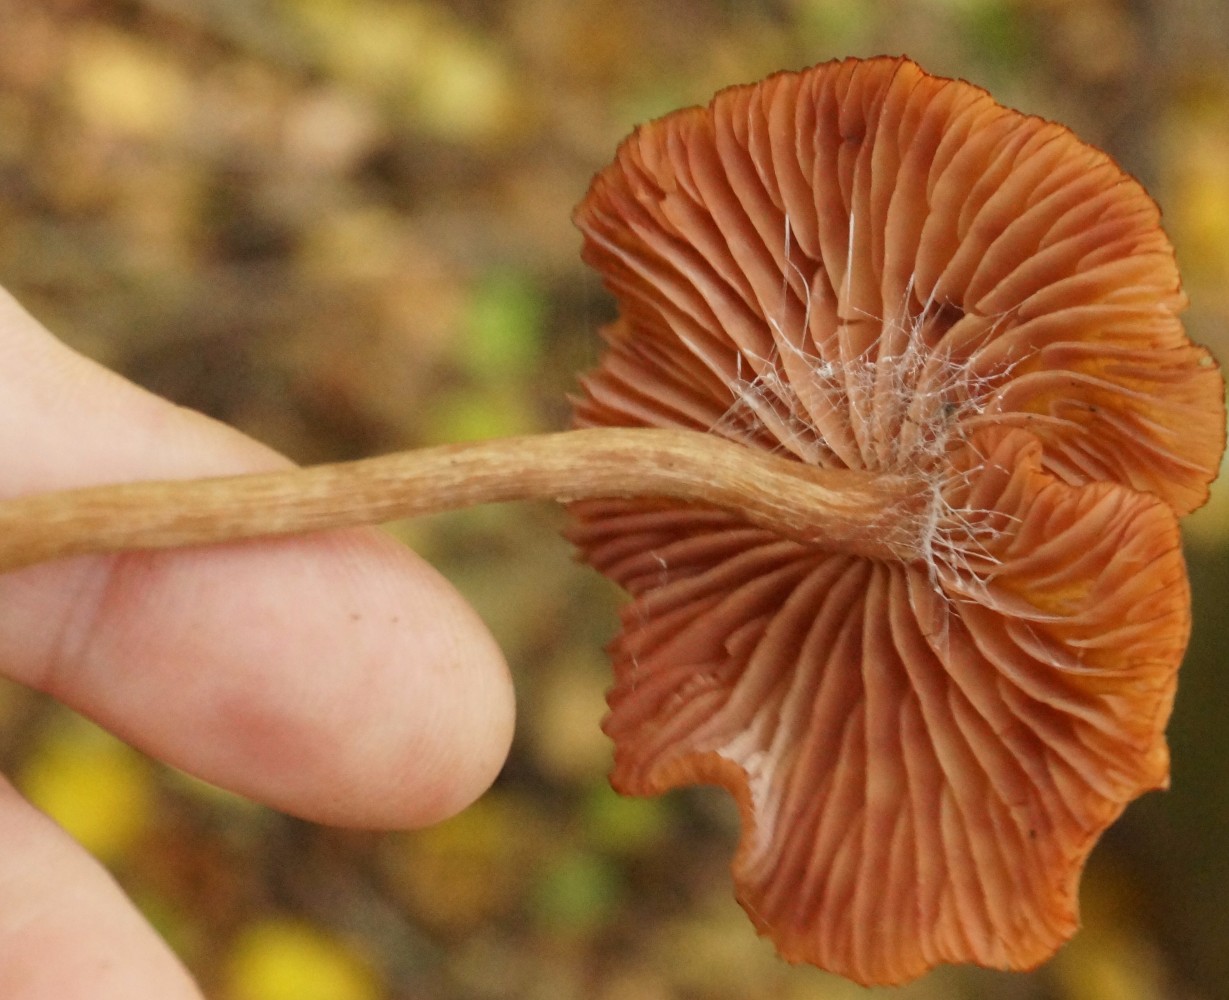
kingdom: Fungi
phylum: Basidiomycota
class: Agaricomycetes
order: Agaricales
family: Hydnangiaceae
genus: Laccaria
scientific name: Laccaria proxima
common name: stor ametysthat
